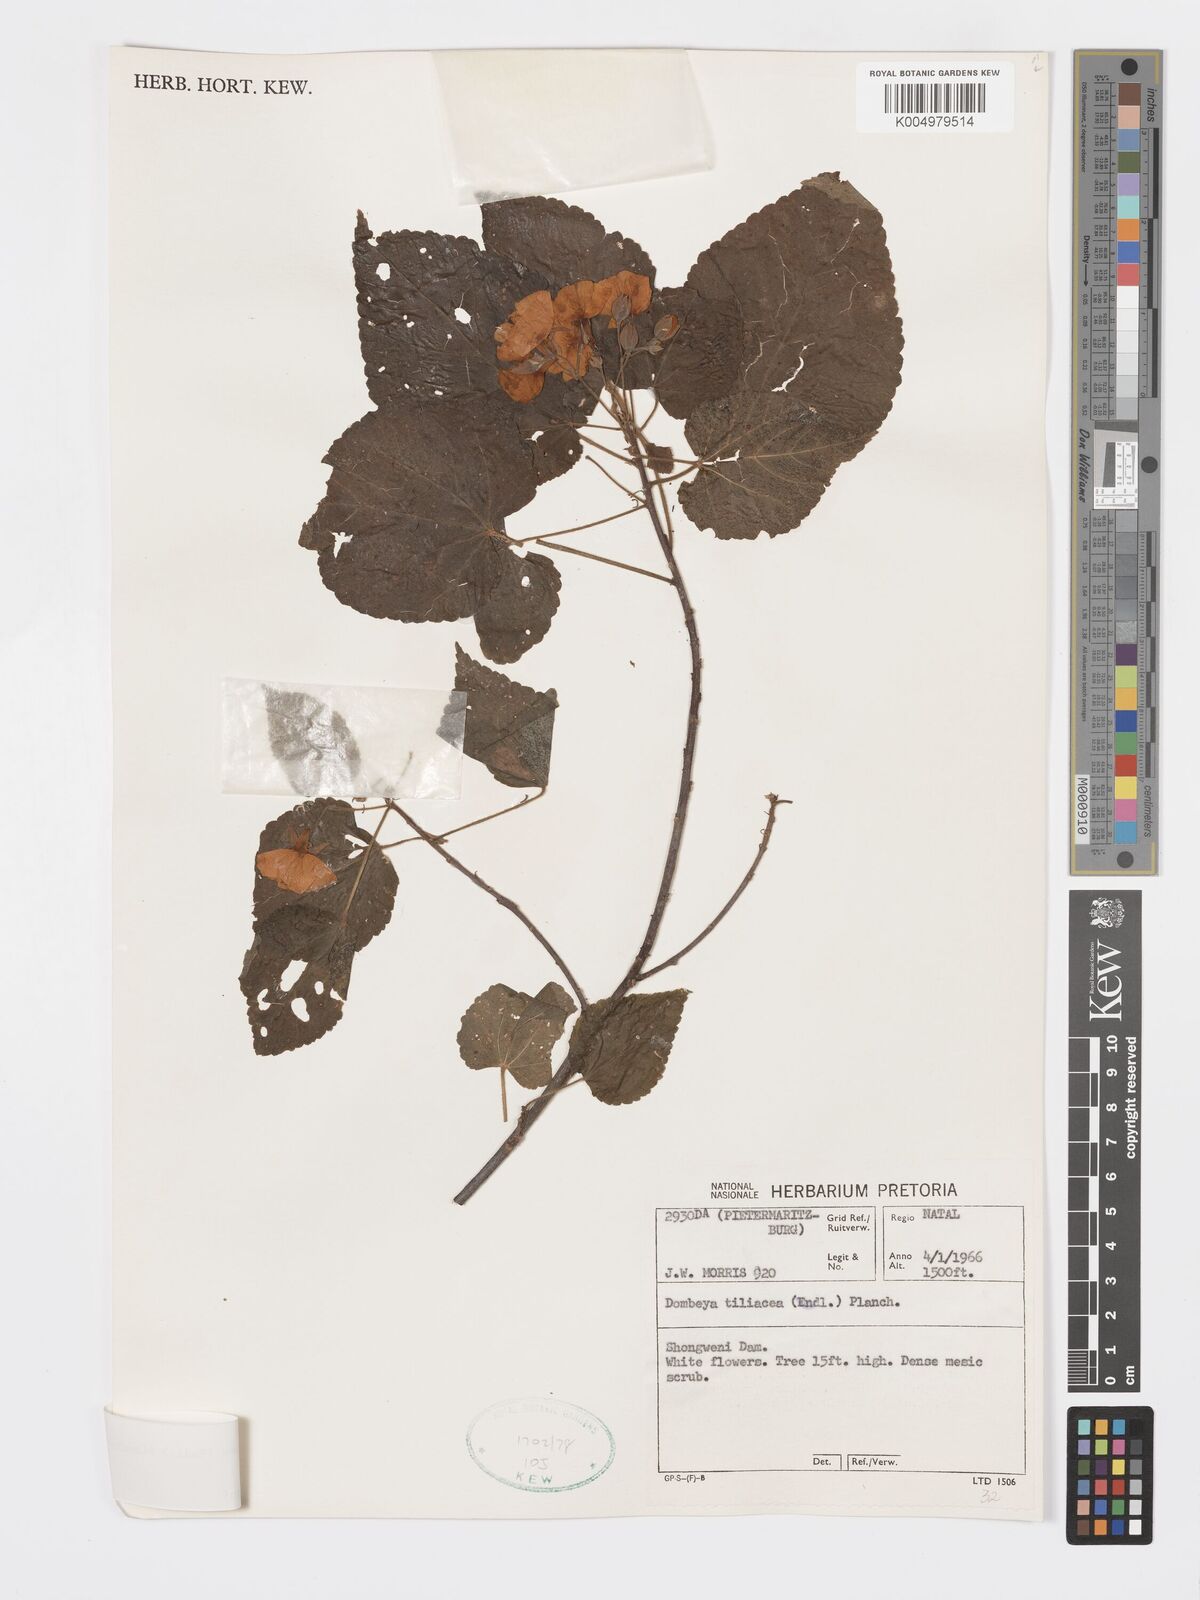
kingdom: Plantae
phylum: Tracheophyta
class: Magnoliopsida
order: Malvales
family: Malvaceae
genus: Dombeya
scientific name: Dombeya tiliacea
